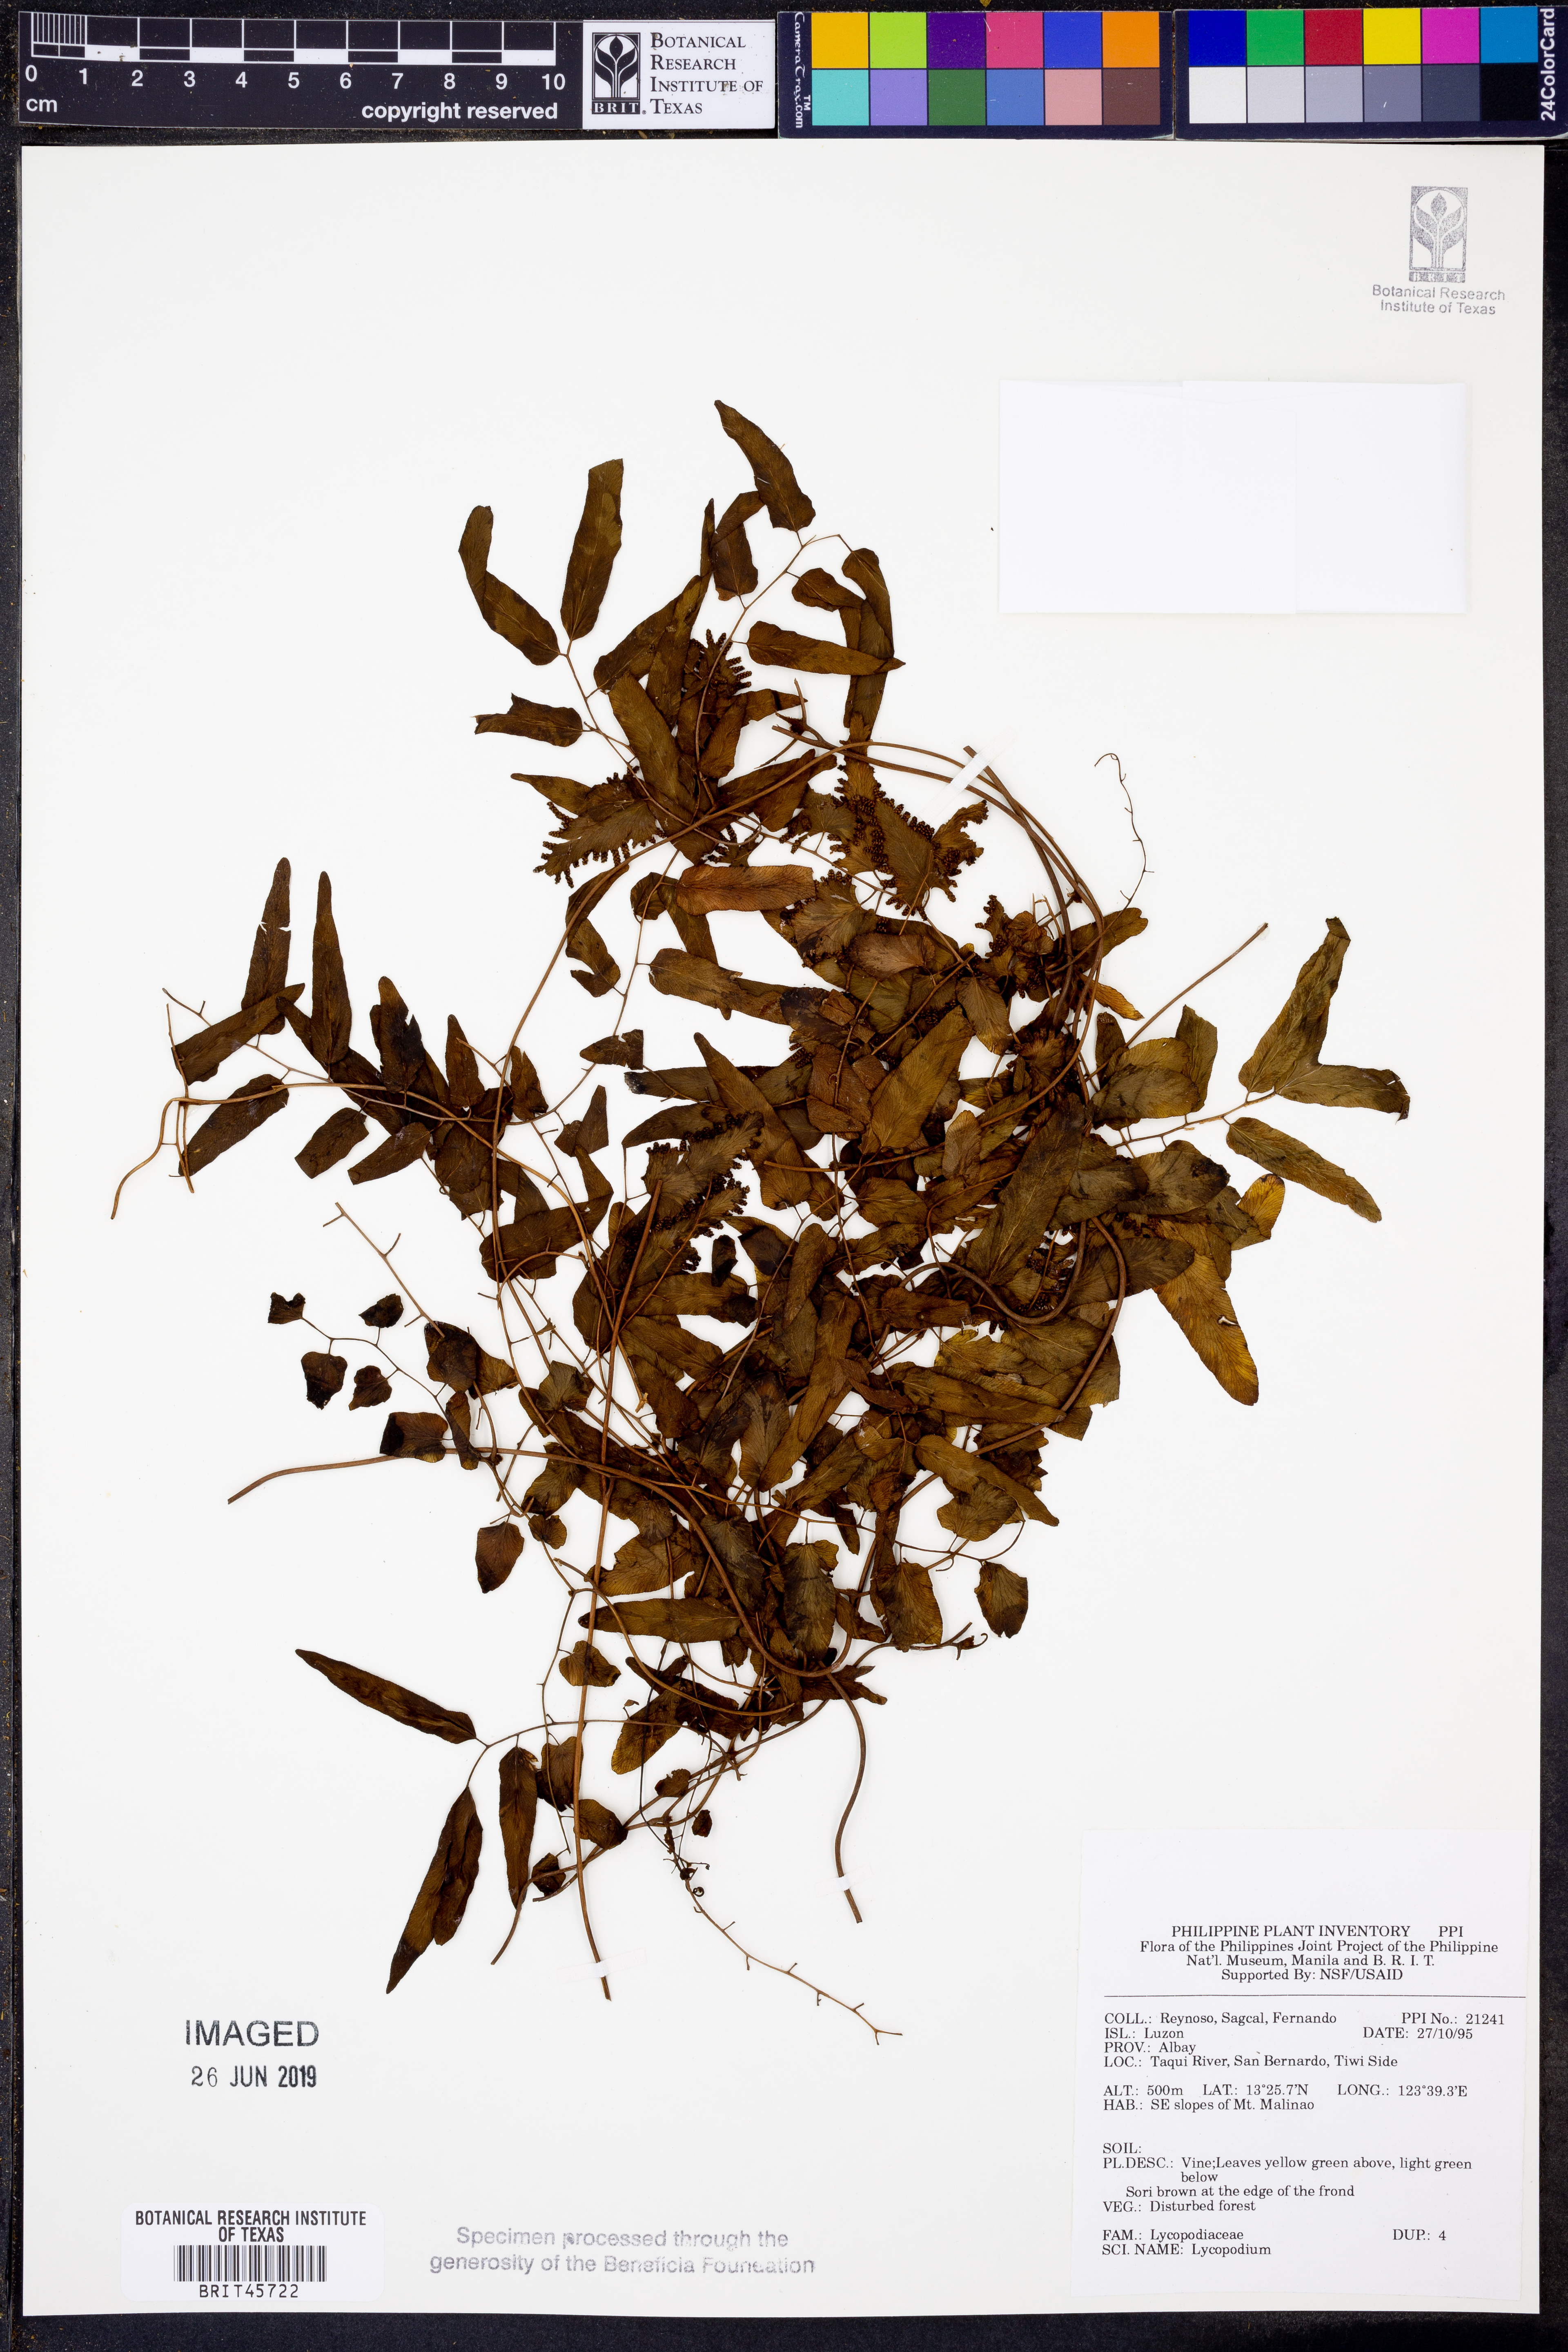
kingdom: Plantae
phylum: Tracheophyta
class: Lycopodiopsida
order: Lycopodiales
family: Lycopodiaceae
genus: Lycopodium
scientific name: Lycopodium
